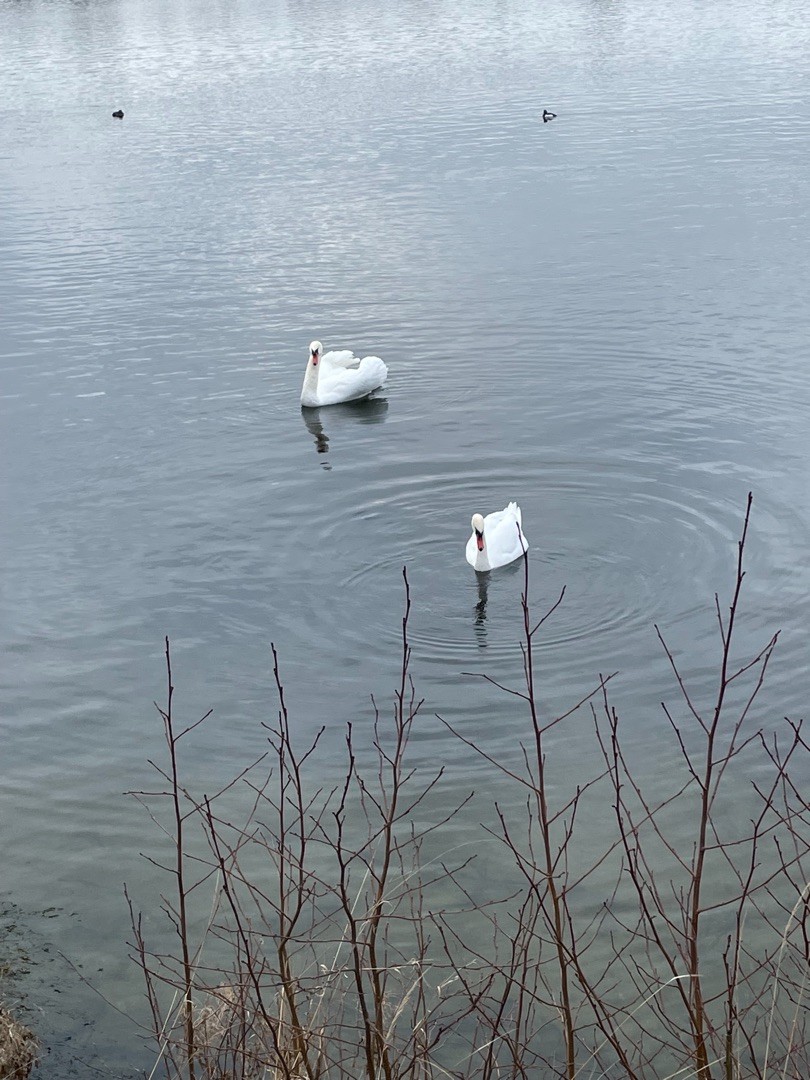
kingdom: Animalia
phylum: Chordata
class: Aves
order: Anseriformes
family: Anatidae
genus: Cygnus
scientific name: Cygnus olor
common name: Knopsvane
